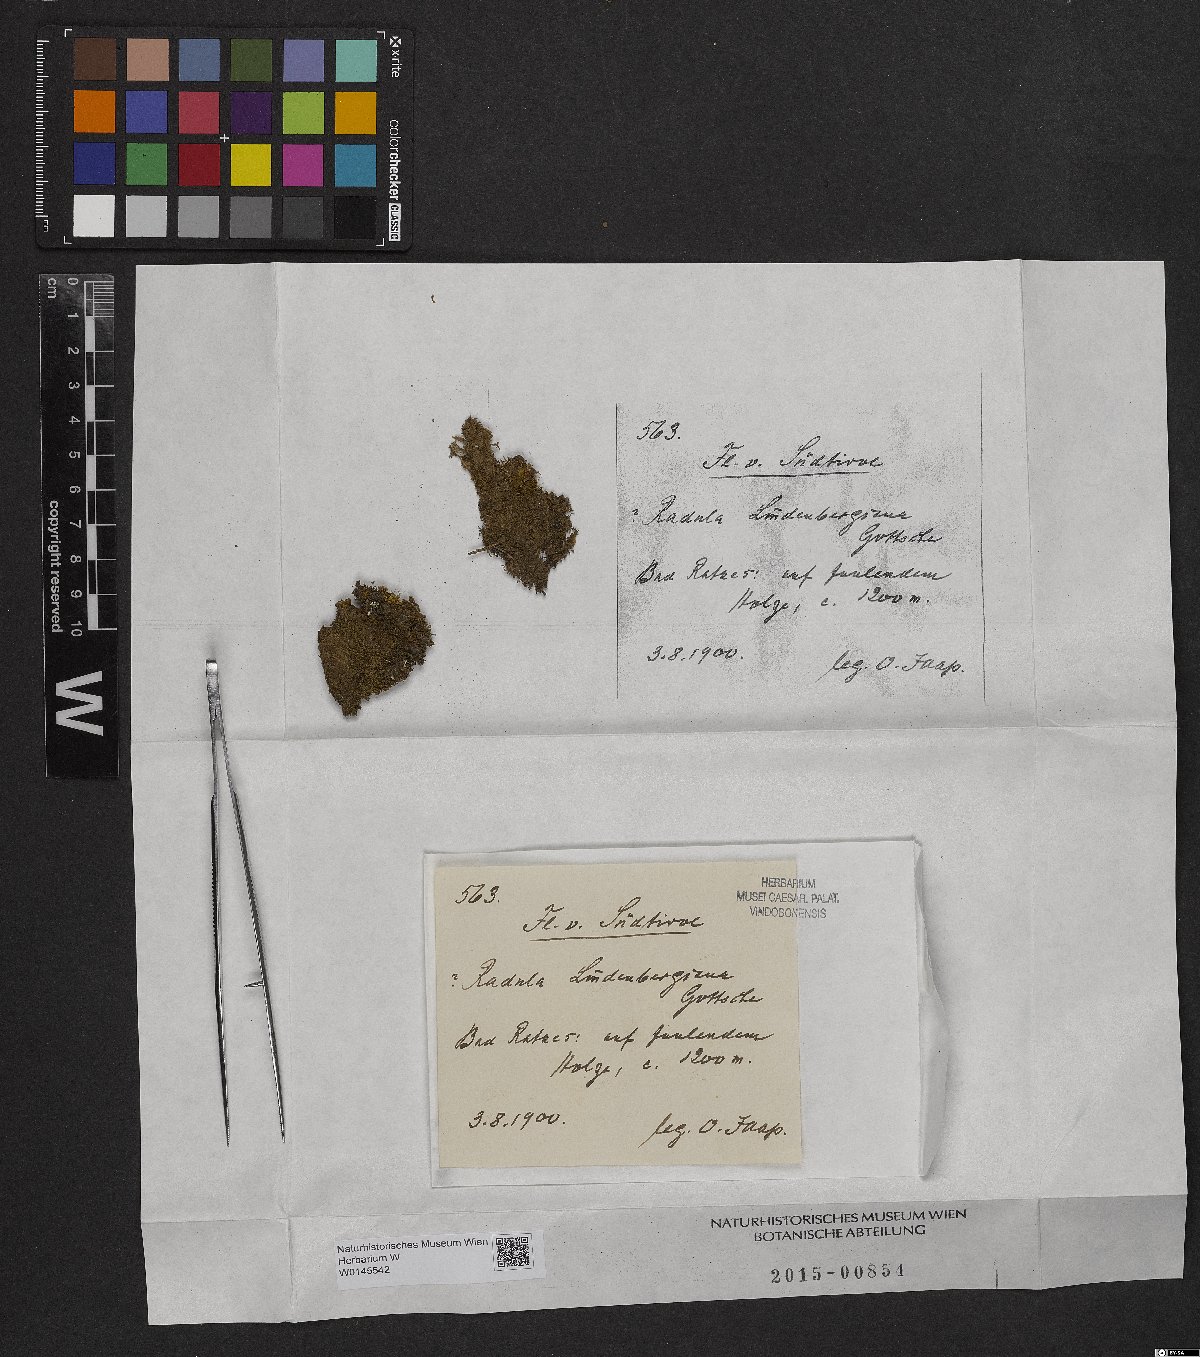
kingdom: Plantae
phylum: Marchantiophyta
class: Jungermanniopsida
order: Porellales
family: Radulaceae
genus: Radula
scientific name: Radula lindenbergiana
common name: Lindenberg's scalewort
